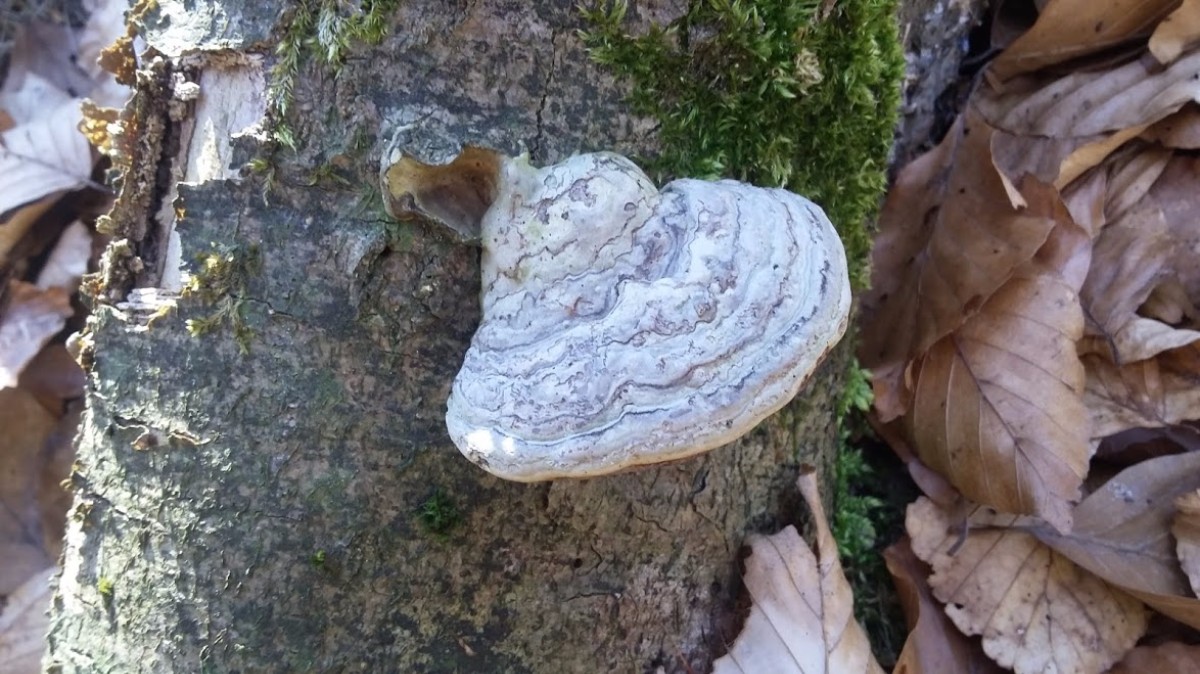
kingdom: Fungi
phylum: Basidiomycota
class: Agaricomycetes
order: Polyporales
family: Polyporaceae
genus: Fomes
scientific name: Fomes fomentarius
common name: tøndersvamp
